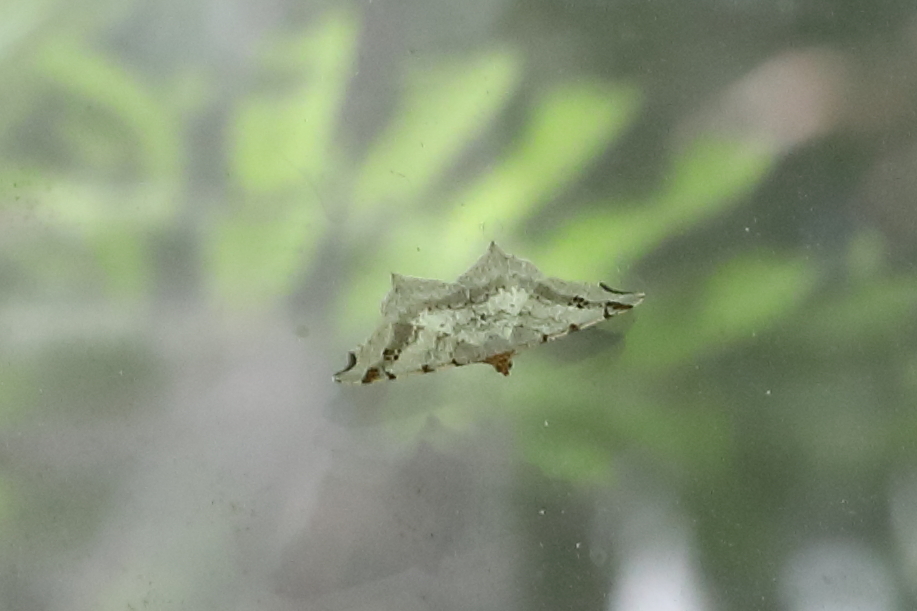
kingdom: Animalia
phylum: Arthropoda
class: Insecta
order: Lepidoptera
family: Geometridae
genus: Macaria
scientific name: Macaria alternata
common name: Sharp-angled peacock
